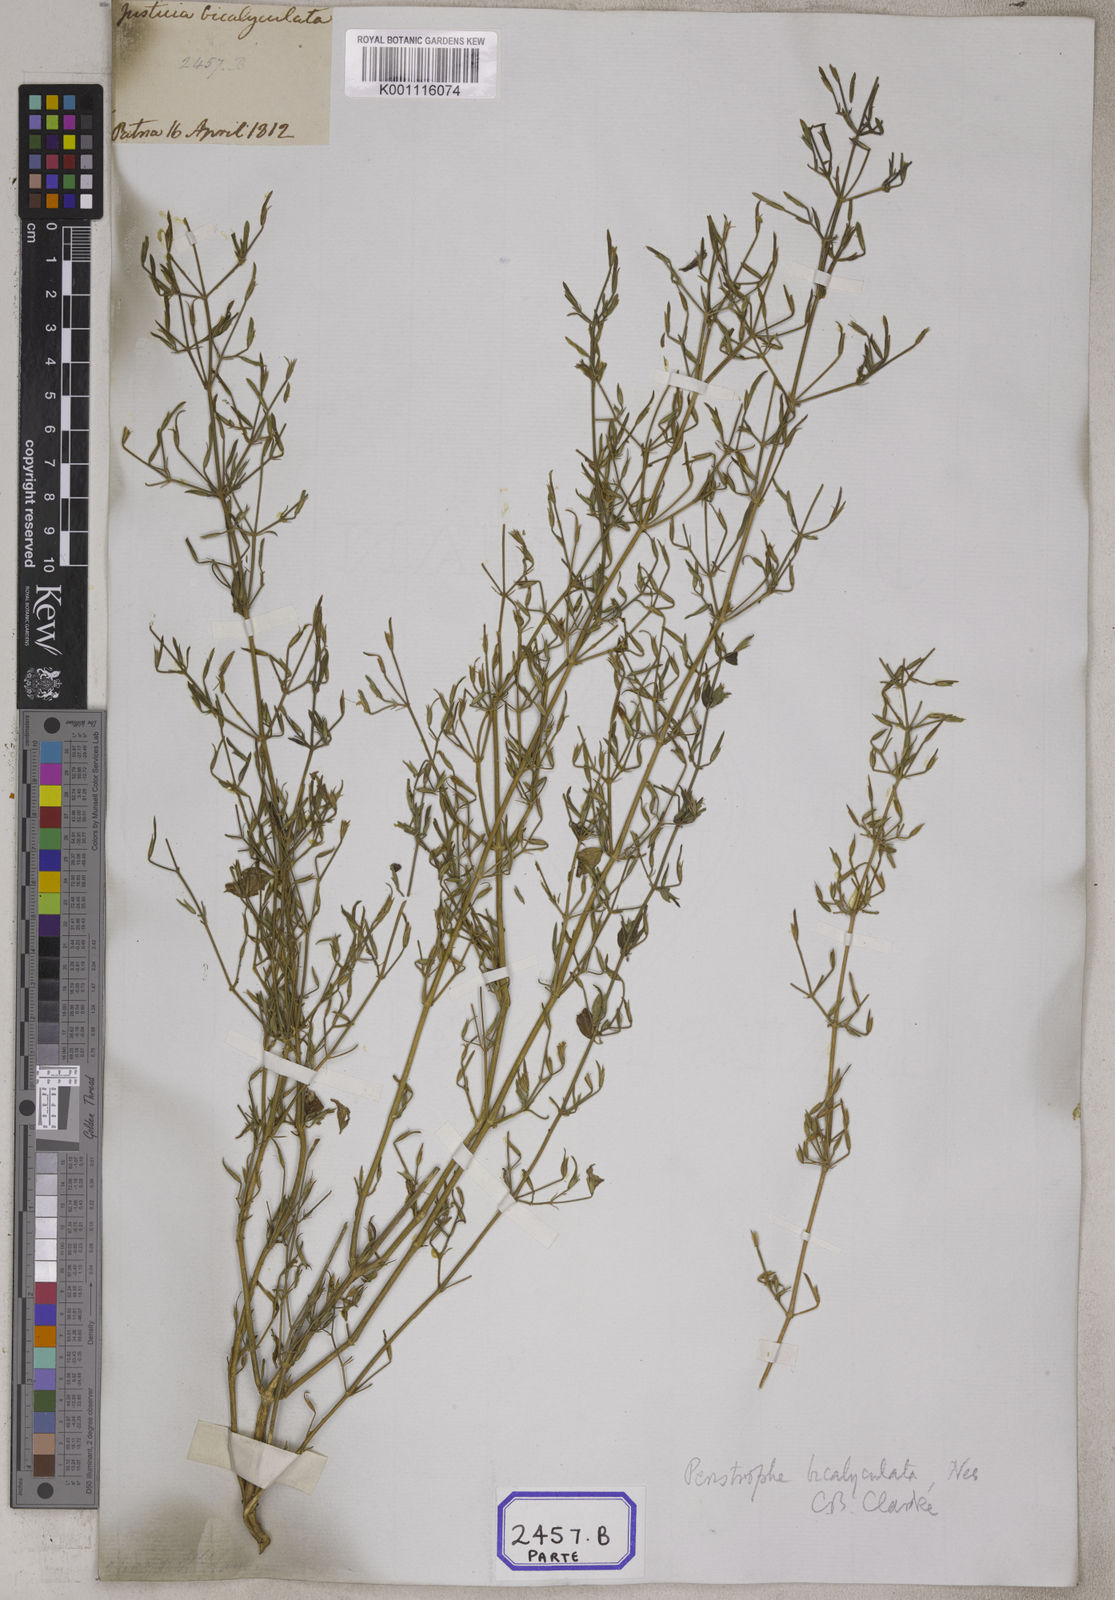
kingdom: Plantae
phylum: Tracheophyta
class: Magnoliopsida
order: Lamiales
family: Acanthaceae
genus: Dicliptera
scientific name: Dicliptera paniculata
